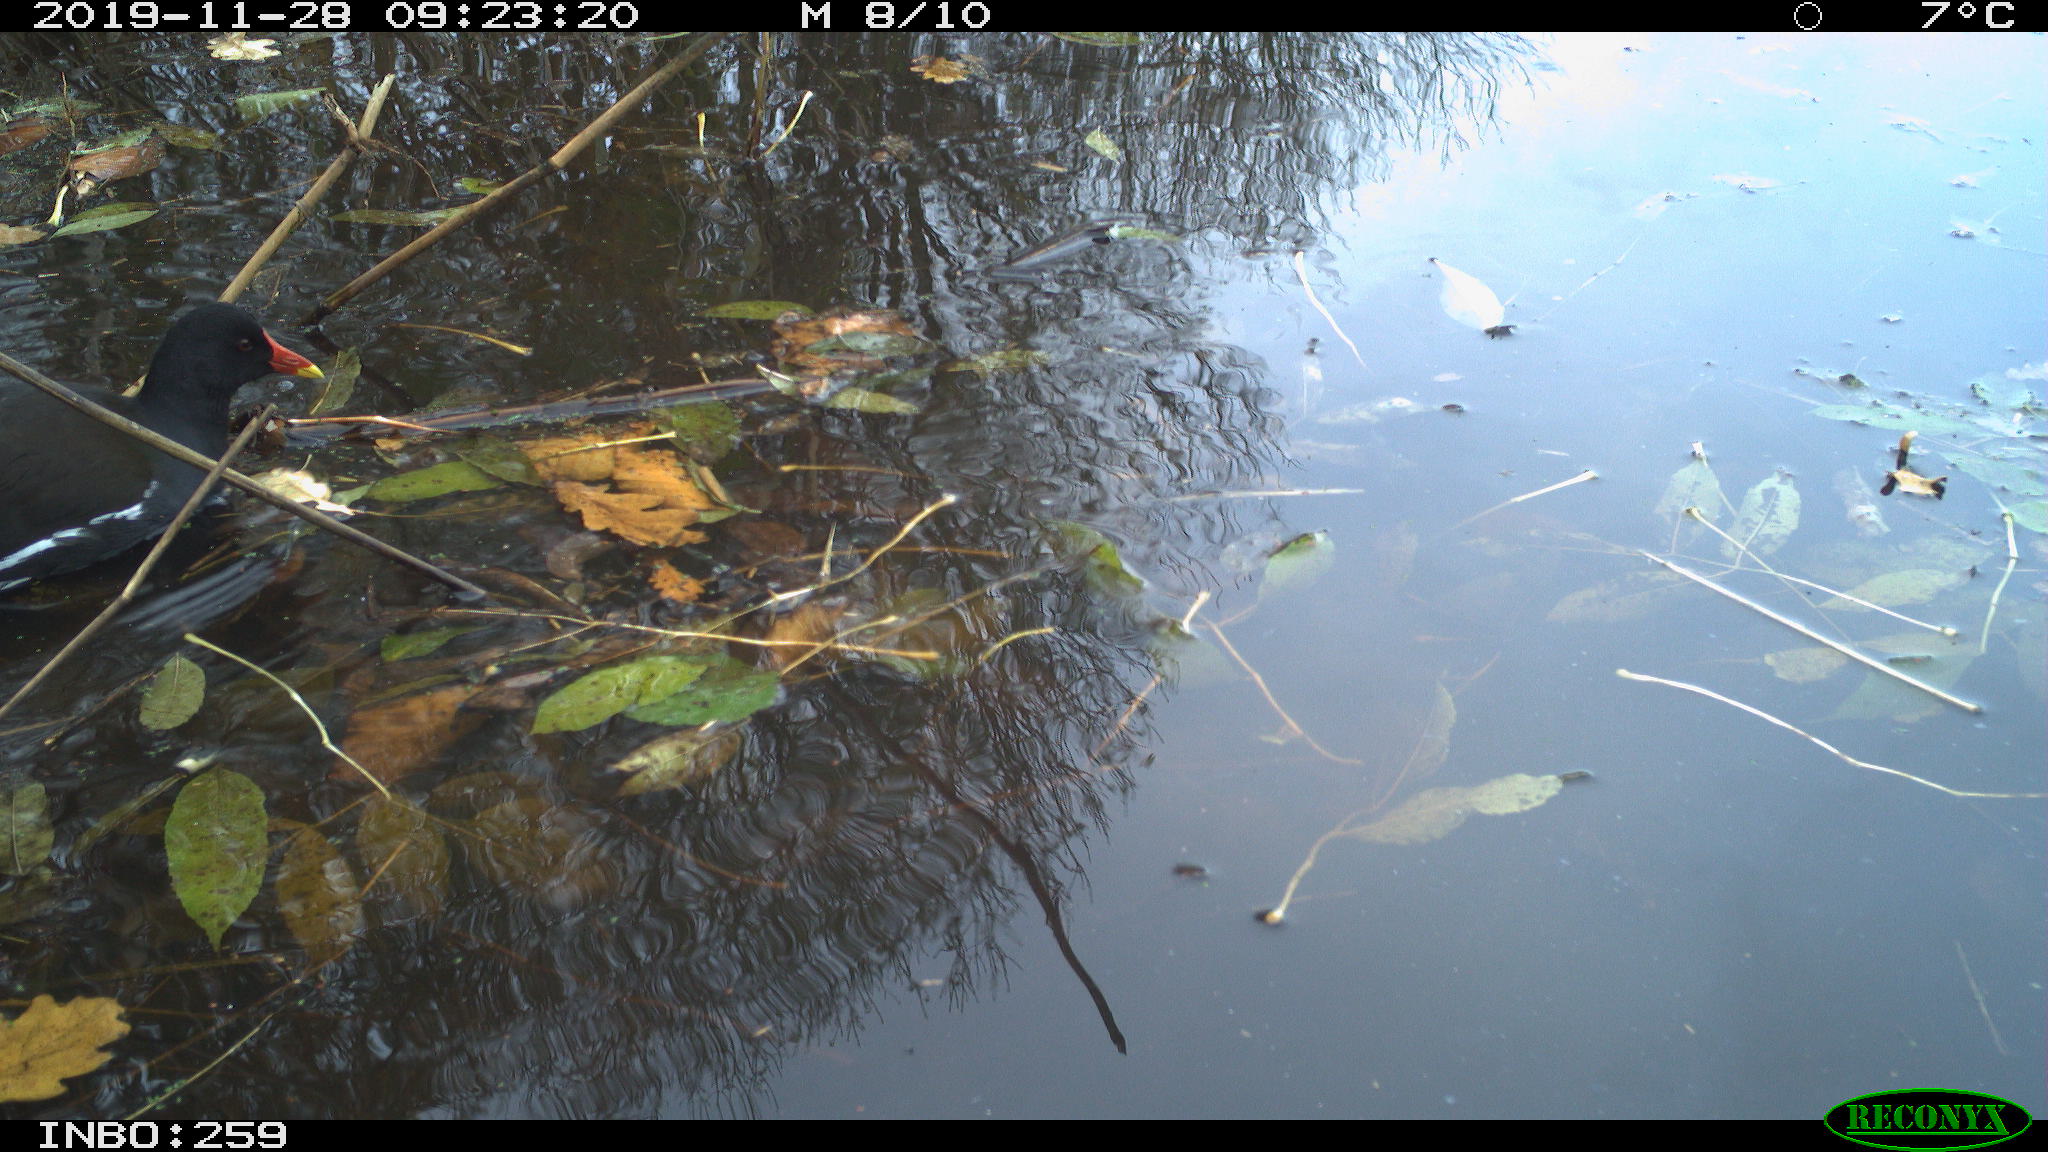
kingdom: Animalia
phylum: Chordata
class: Aves
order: Gruiformes
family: Rallidae
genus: Gallinula
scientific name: Gallinula chloropus
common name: Common moorhen
